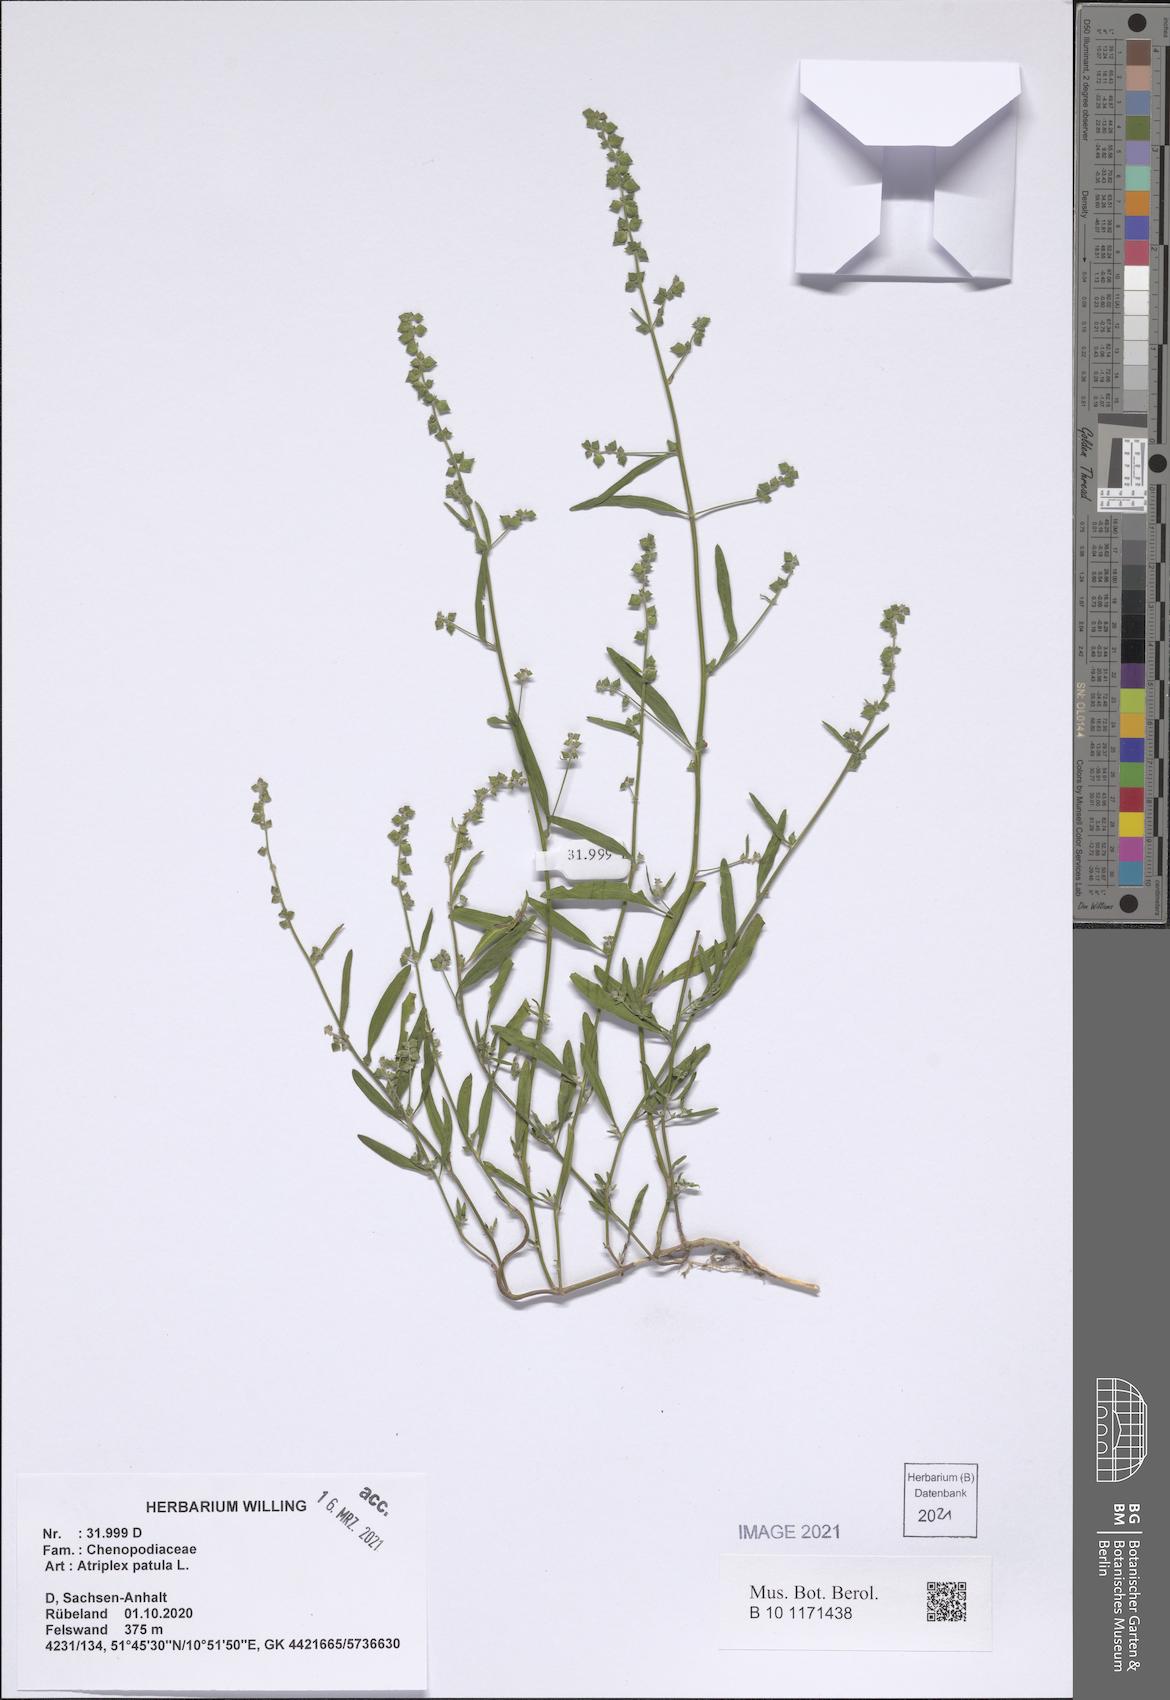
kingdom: Plantae
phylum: Tracheophyta
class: Magnoliopsida
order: Caryophyllales
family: Amaranthaceae
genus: Atriplex
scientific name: Atriplex patula
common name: Common orache
